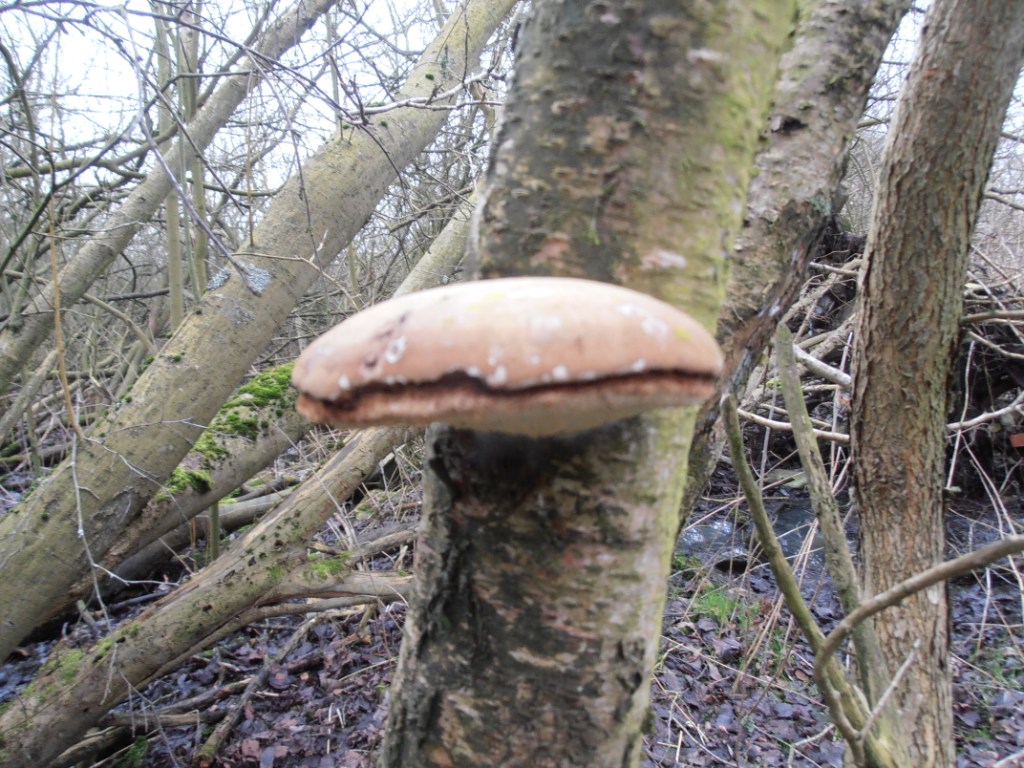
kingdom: Fungi
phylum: Basidiomycota
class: Agaricomycetes
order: Polyporales
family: Fomitopsidaceae
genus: Fomitopsis
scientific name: Fomitopsis betulina
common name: birkeporesvamp
